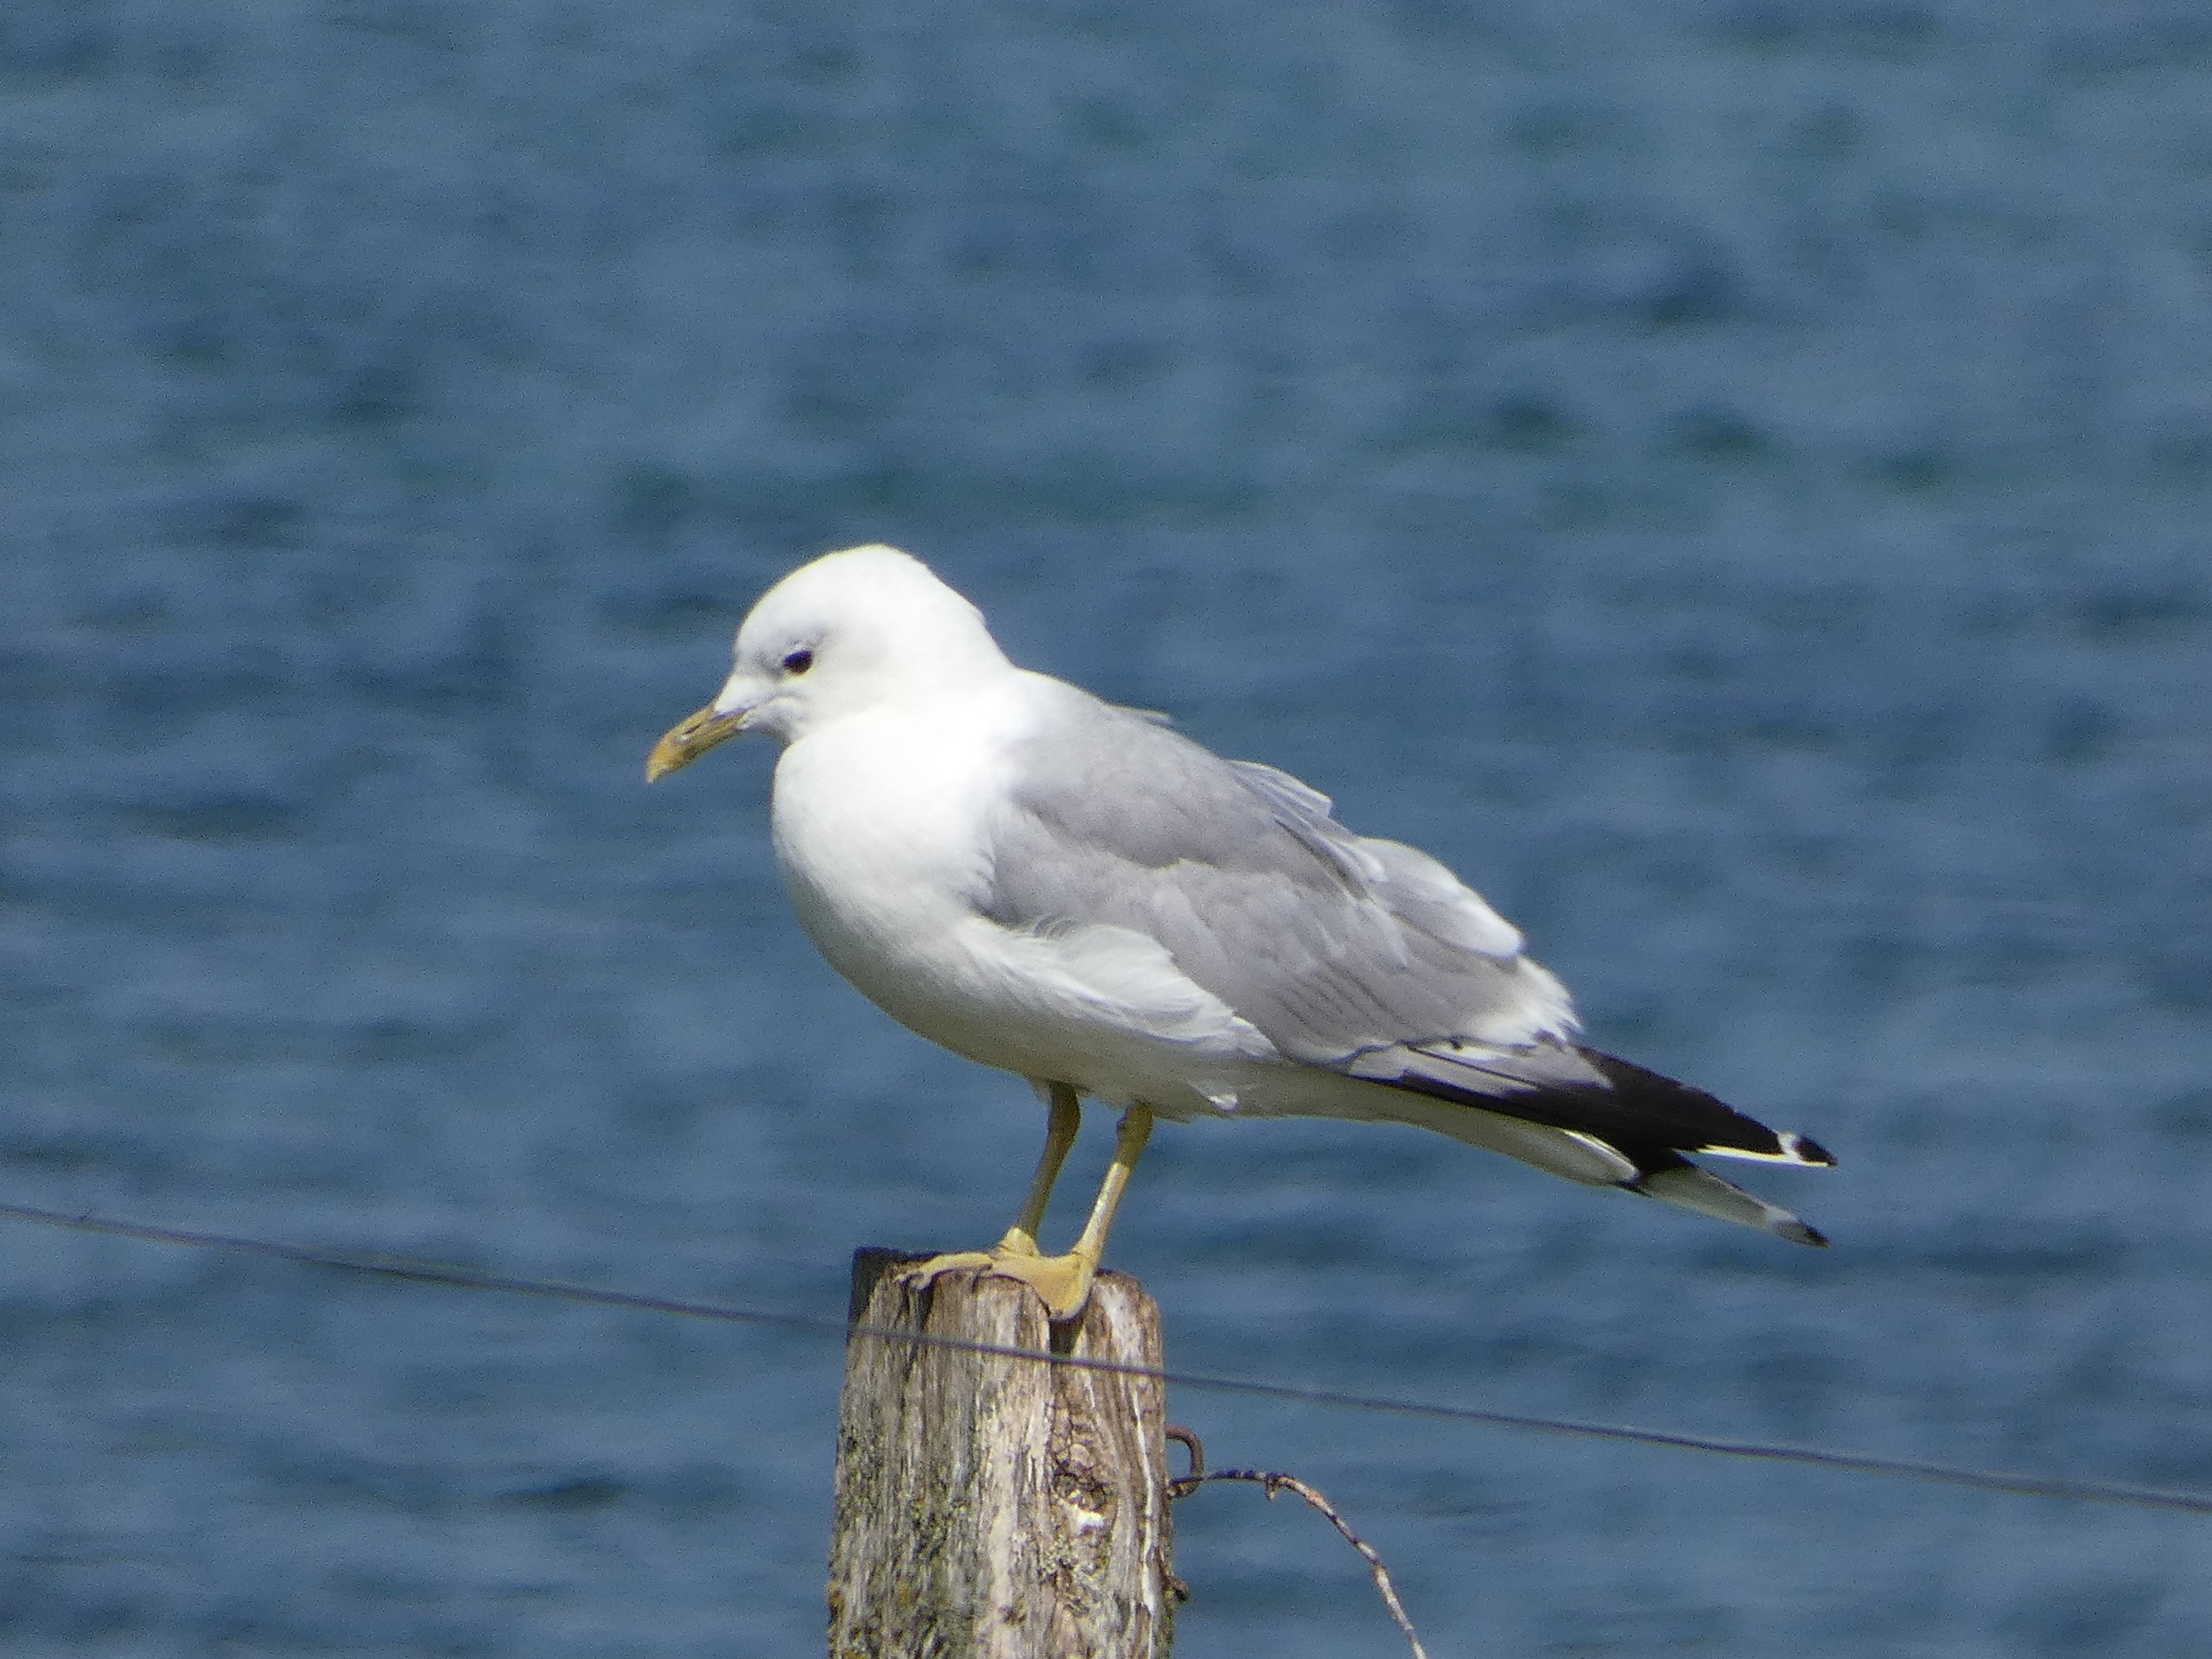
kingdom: Animalia
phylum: Chordata
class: Aves
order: Charadriiformes
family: Laridae
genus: Larus
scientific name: Larus canus
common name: Stormmåge
